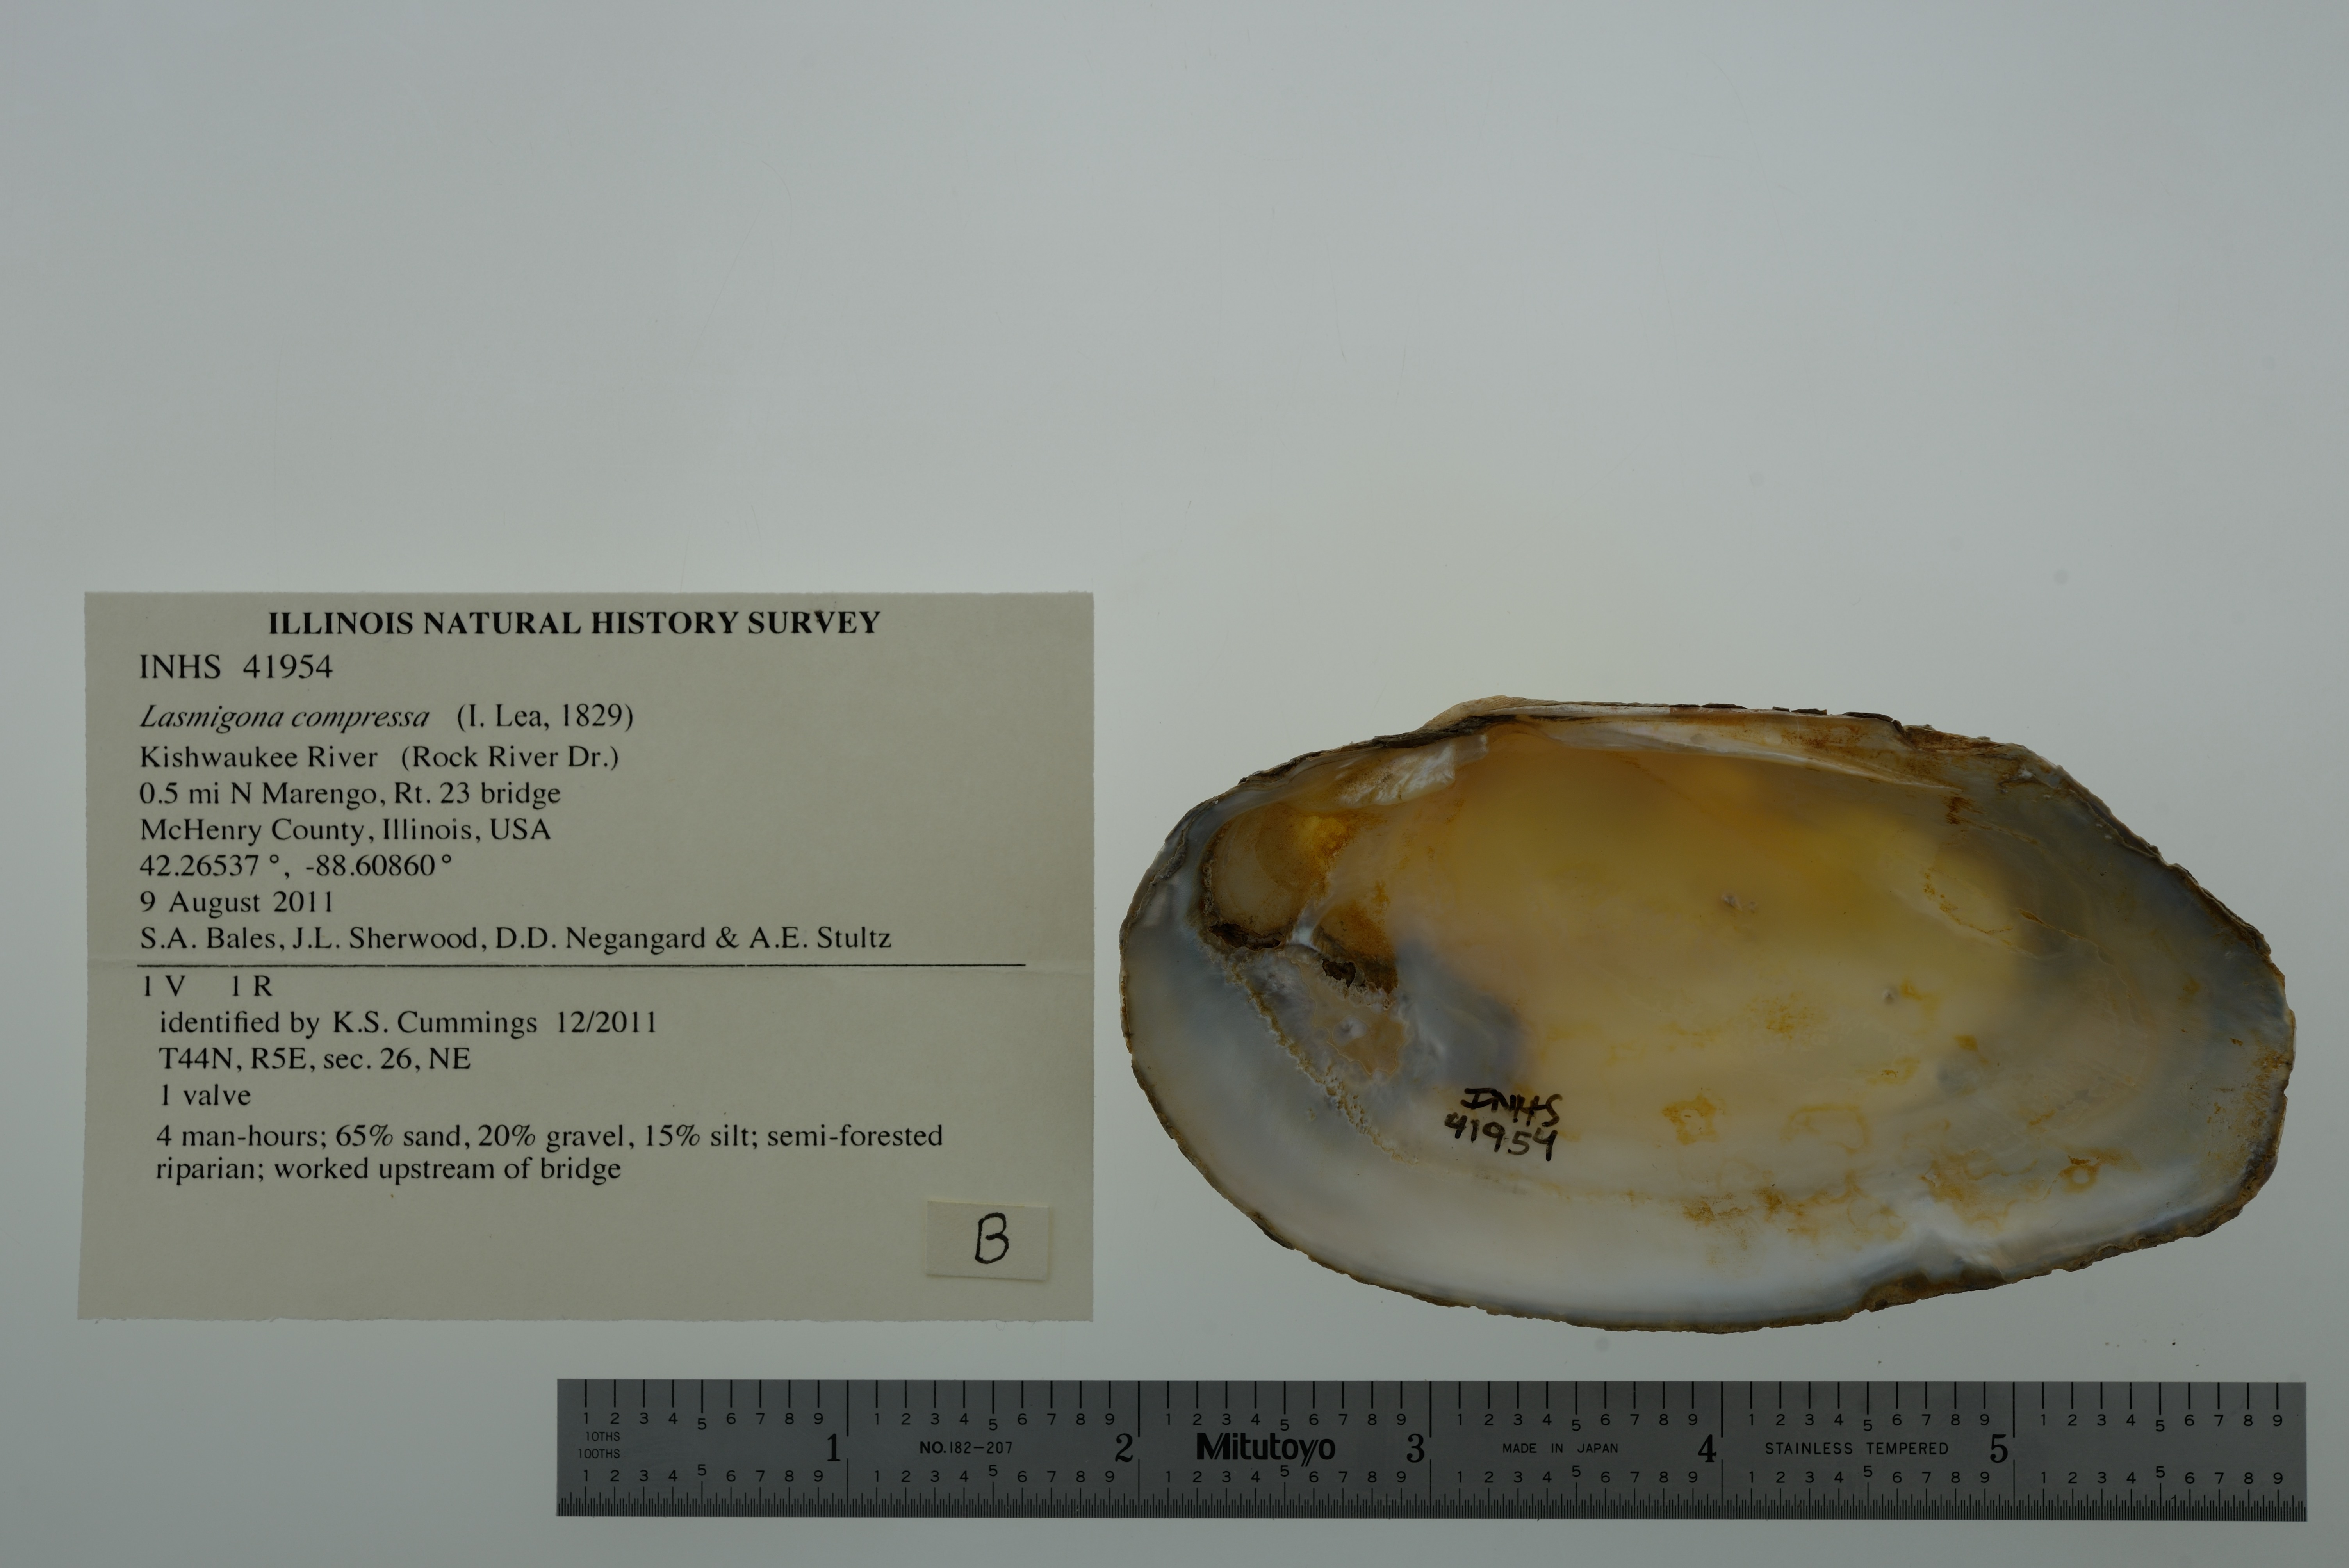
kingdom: Animalia
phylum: Mollusca
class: Bivalvia
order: Unionida
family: Unionidae
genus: Lasmigona
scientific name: Lasmigona compressa
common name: Creek heelsplitter
